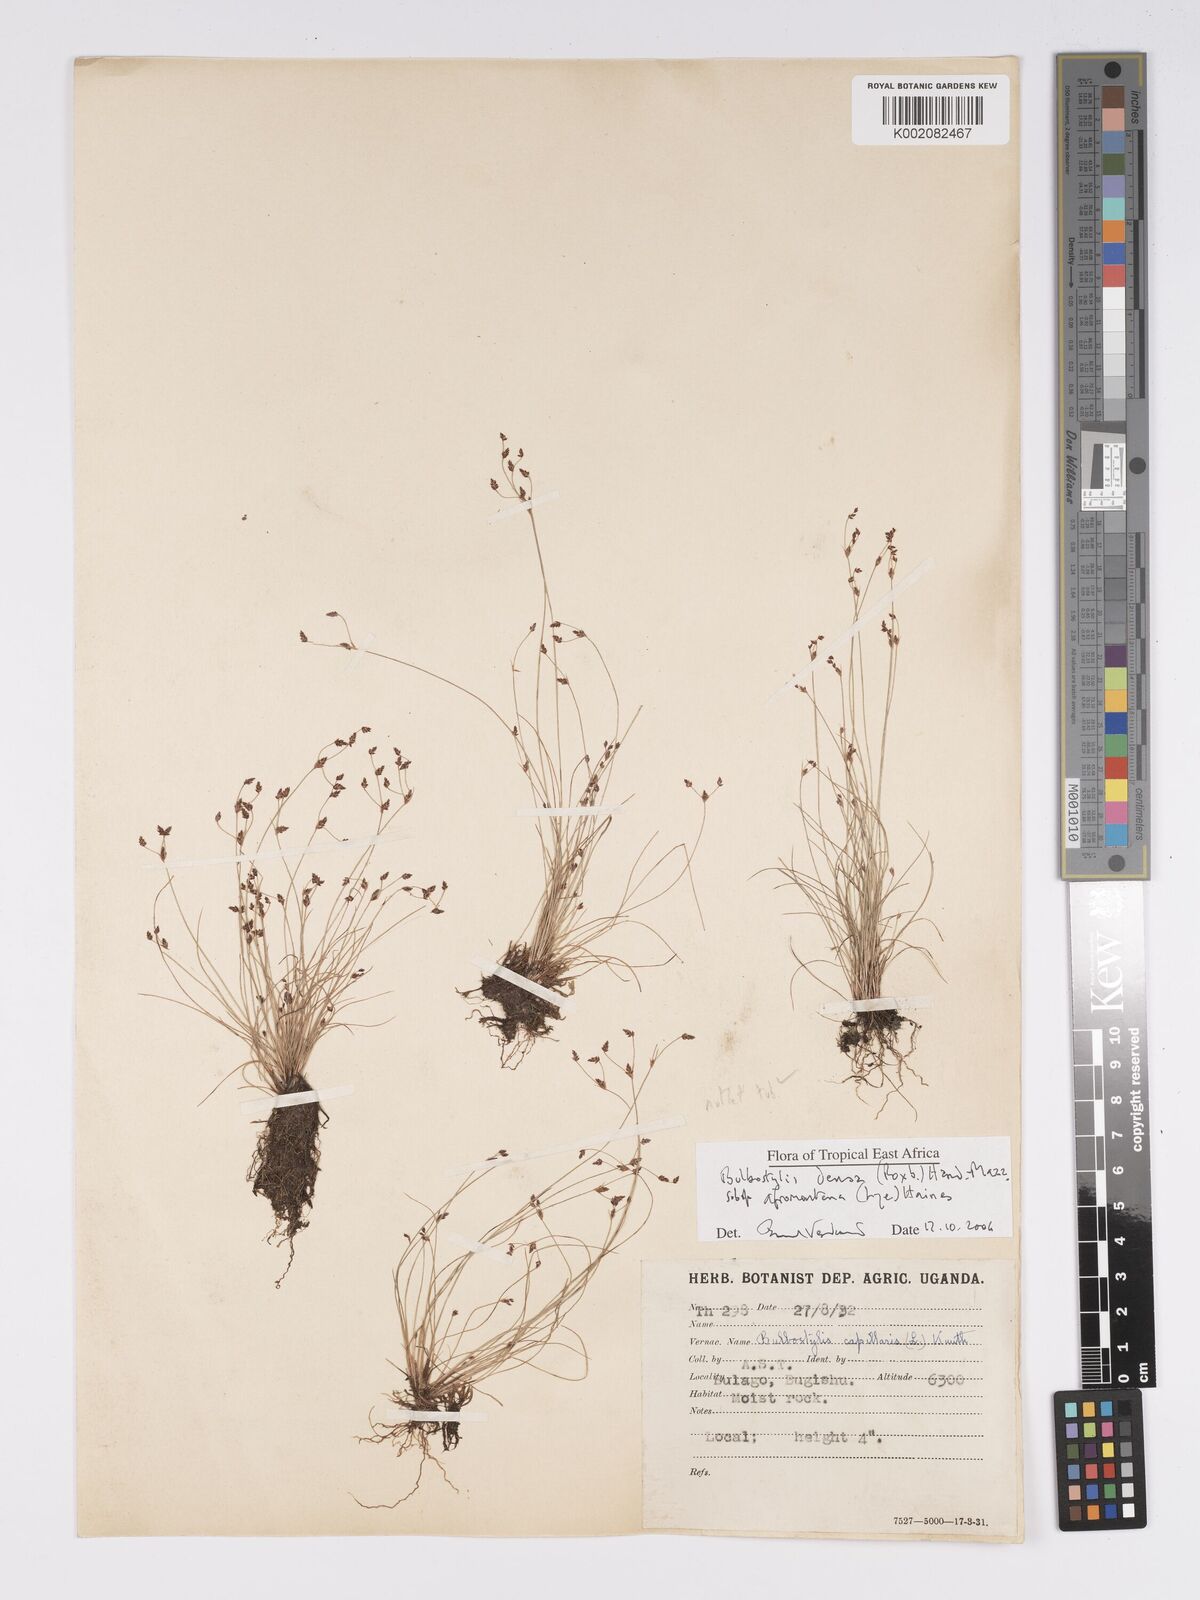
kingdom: Plantae
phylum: Tracheophyta
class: Liliopsida
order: Poales
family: Cyperaceae
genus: Bulbostylis
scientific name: Bulbostylis densa
